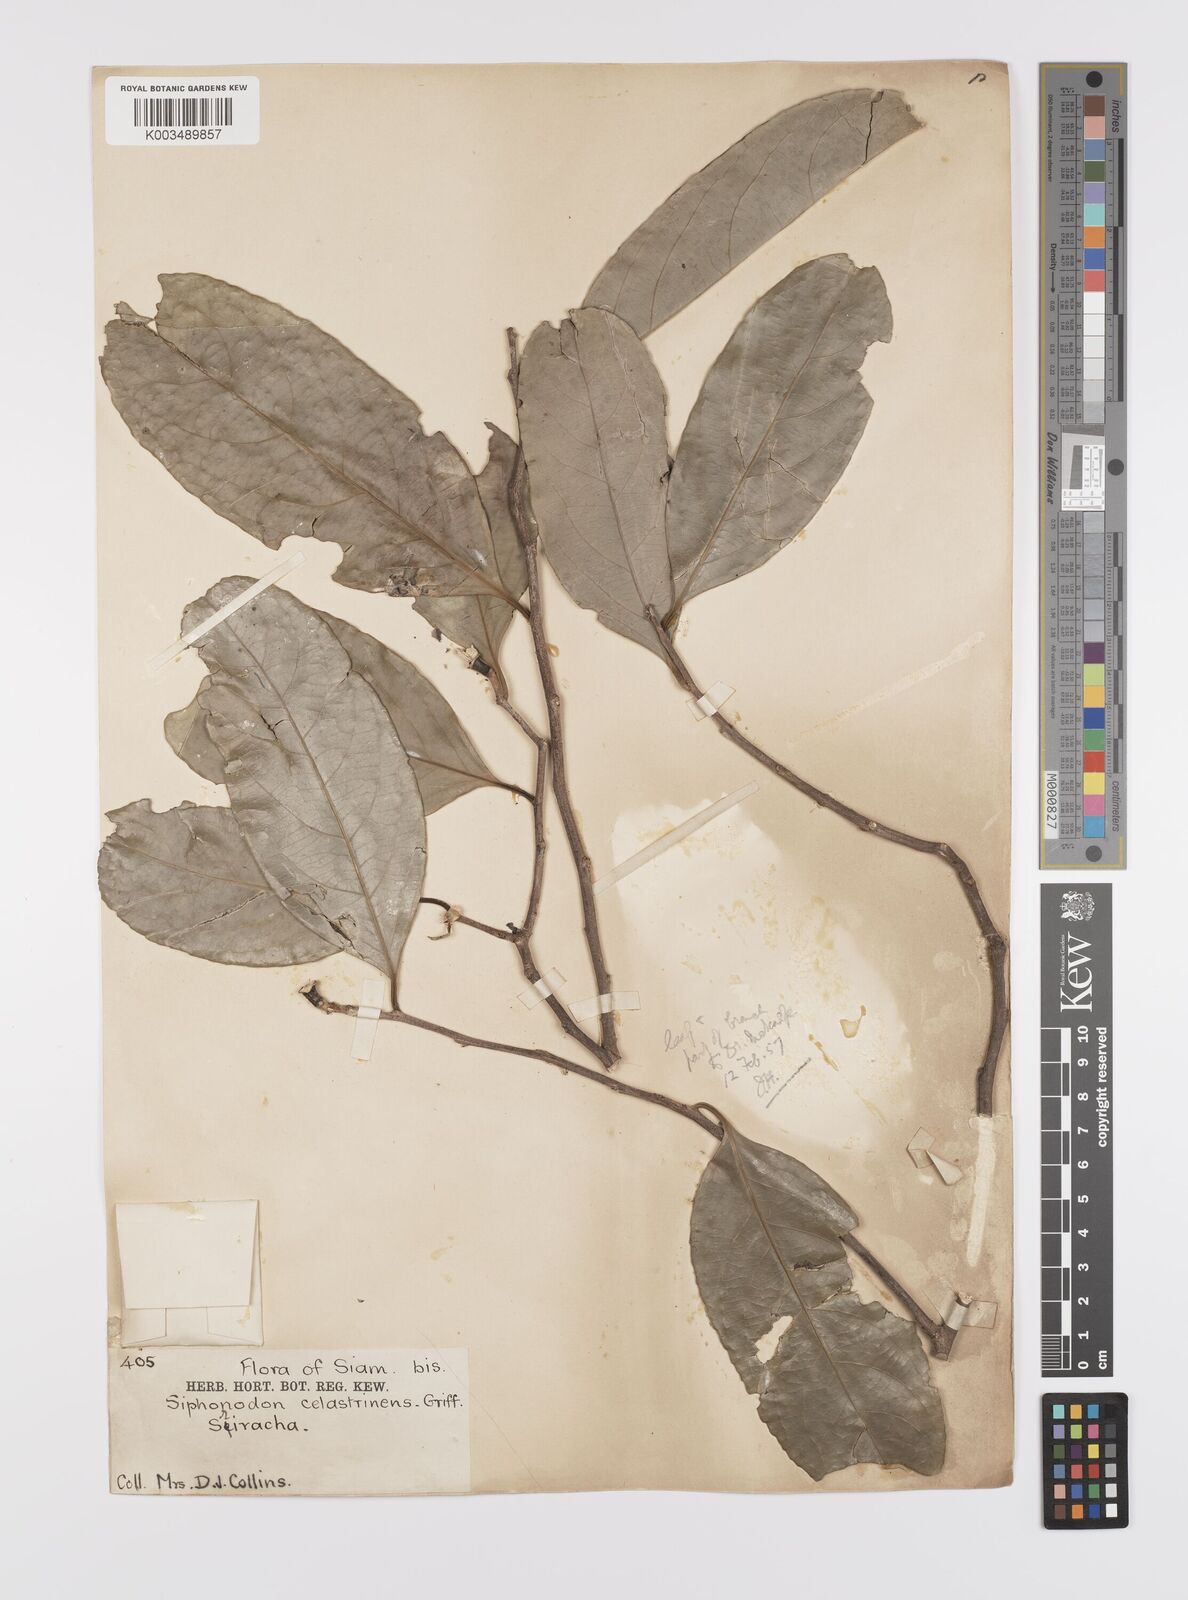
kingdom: Plantae
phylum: Tracheophyta
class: Magnoliopsida
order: Celastrales
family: Celastraceae
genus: Siphonodon
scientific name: Siphonodon celastrineus
